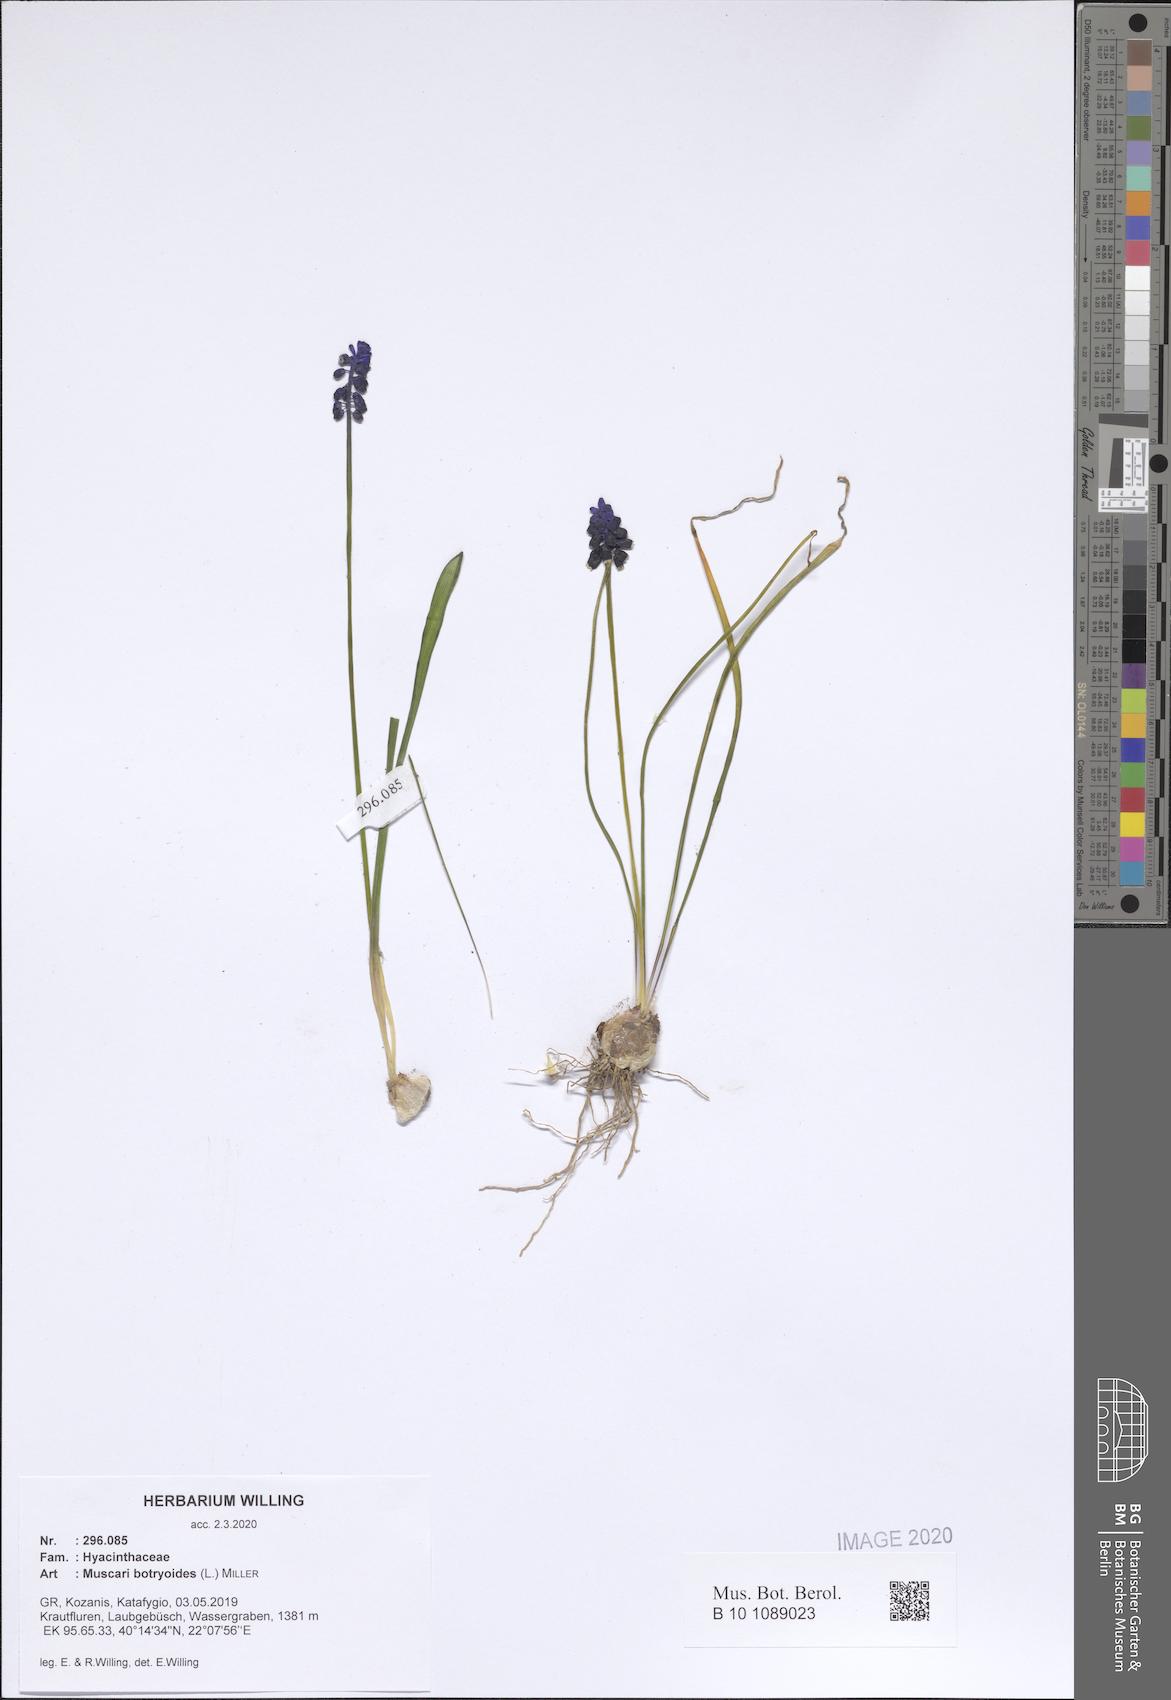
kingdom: Plantae
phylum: Tracheophyta
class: Liliopsida
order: Asparagales
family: Asparagaceae
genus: Muscari
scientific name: Muscari botryoides
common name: Compact grape-hyacinth
